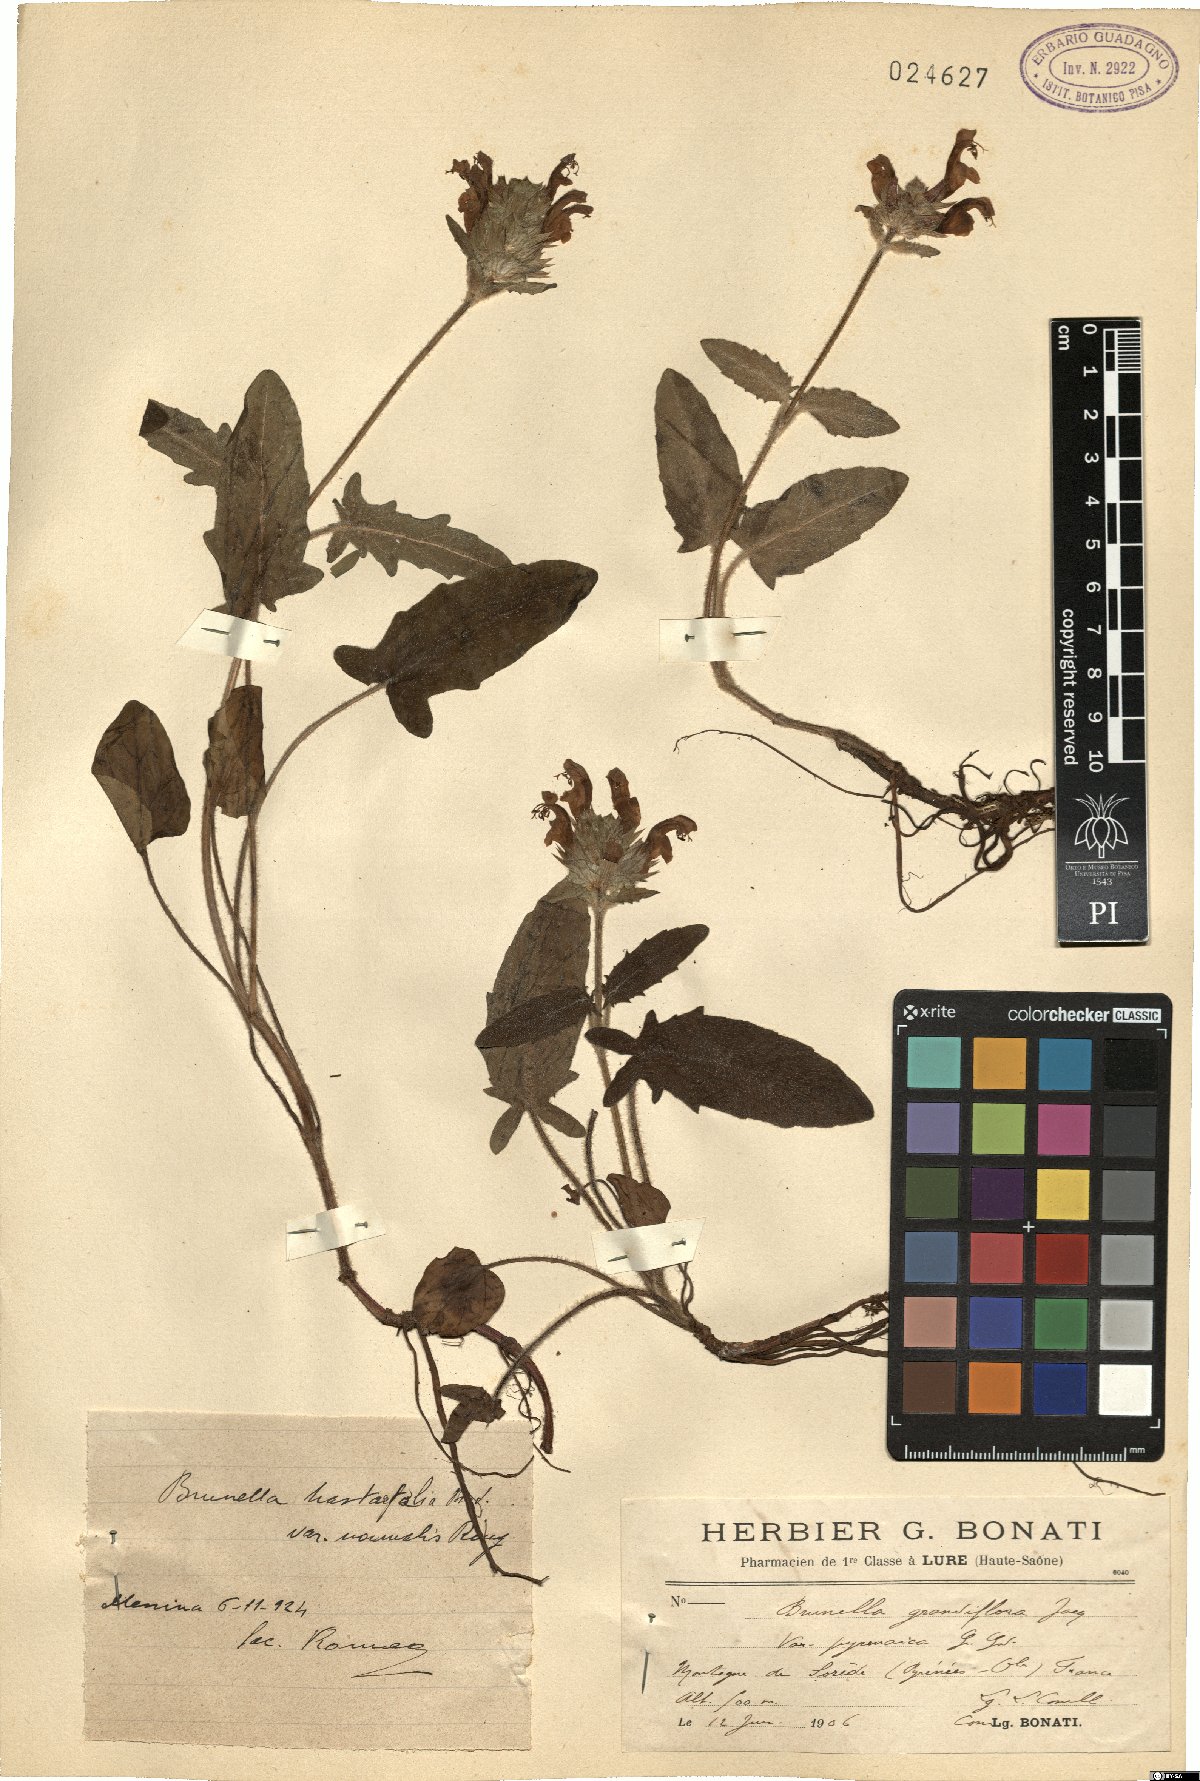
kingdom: Plantae
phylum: Tracheophyta
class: Magnoliopsida
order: Lamiales
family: Lamiaceae
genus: Prunella
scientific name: Prunella grandiflora
